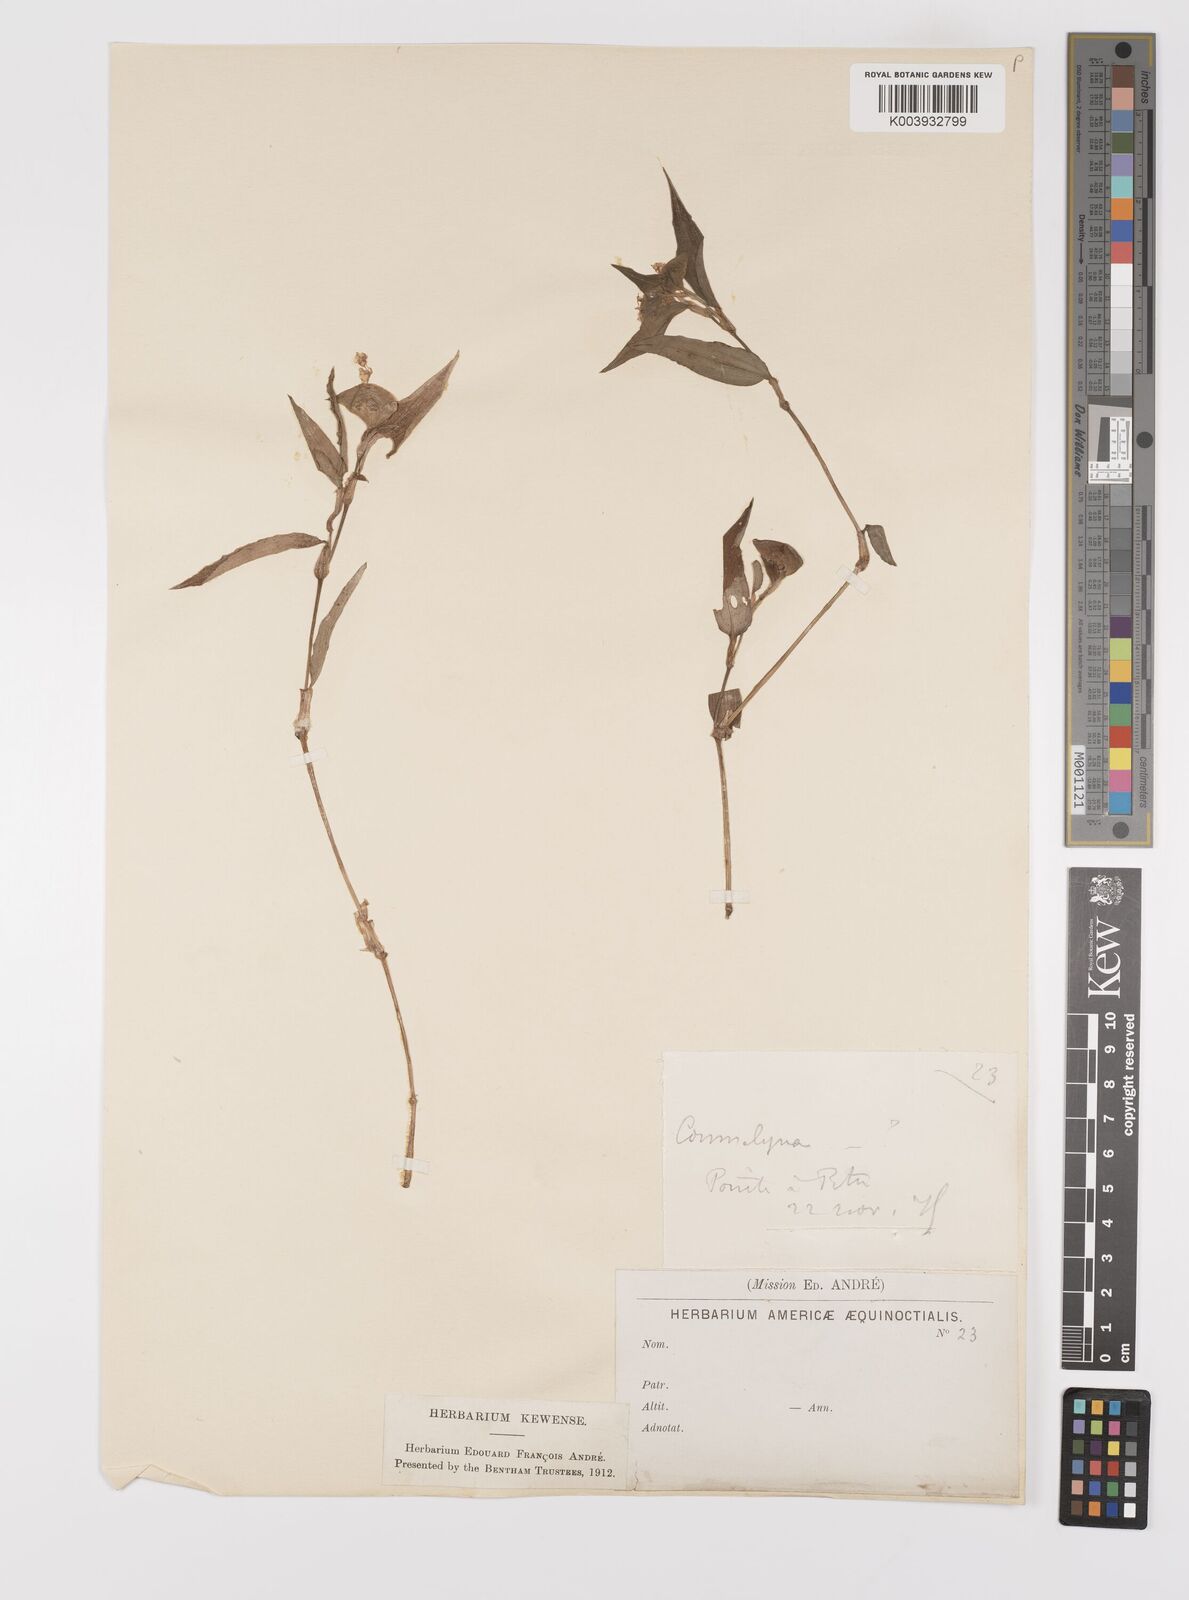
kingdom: Plantae
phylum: Tracheophyta
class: Liliopsida
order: Commelinales
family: Commelinaceae
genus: Commelina
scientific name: Commelina
